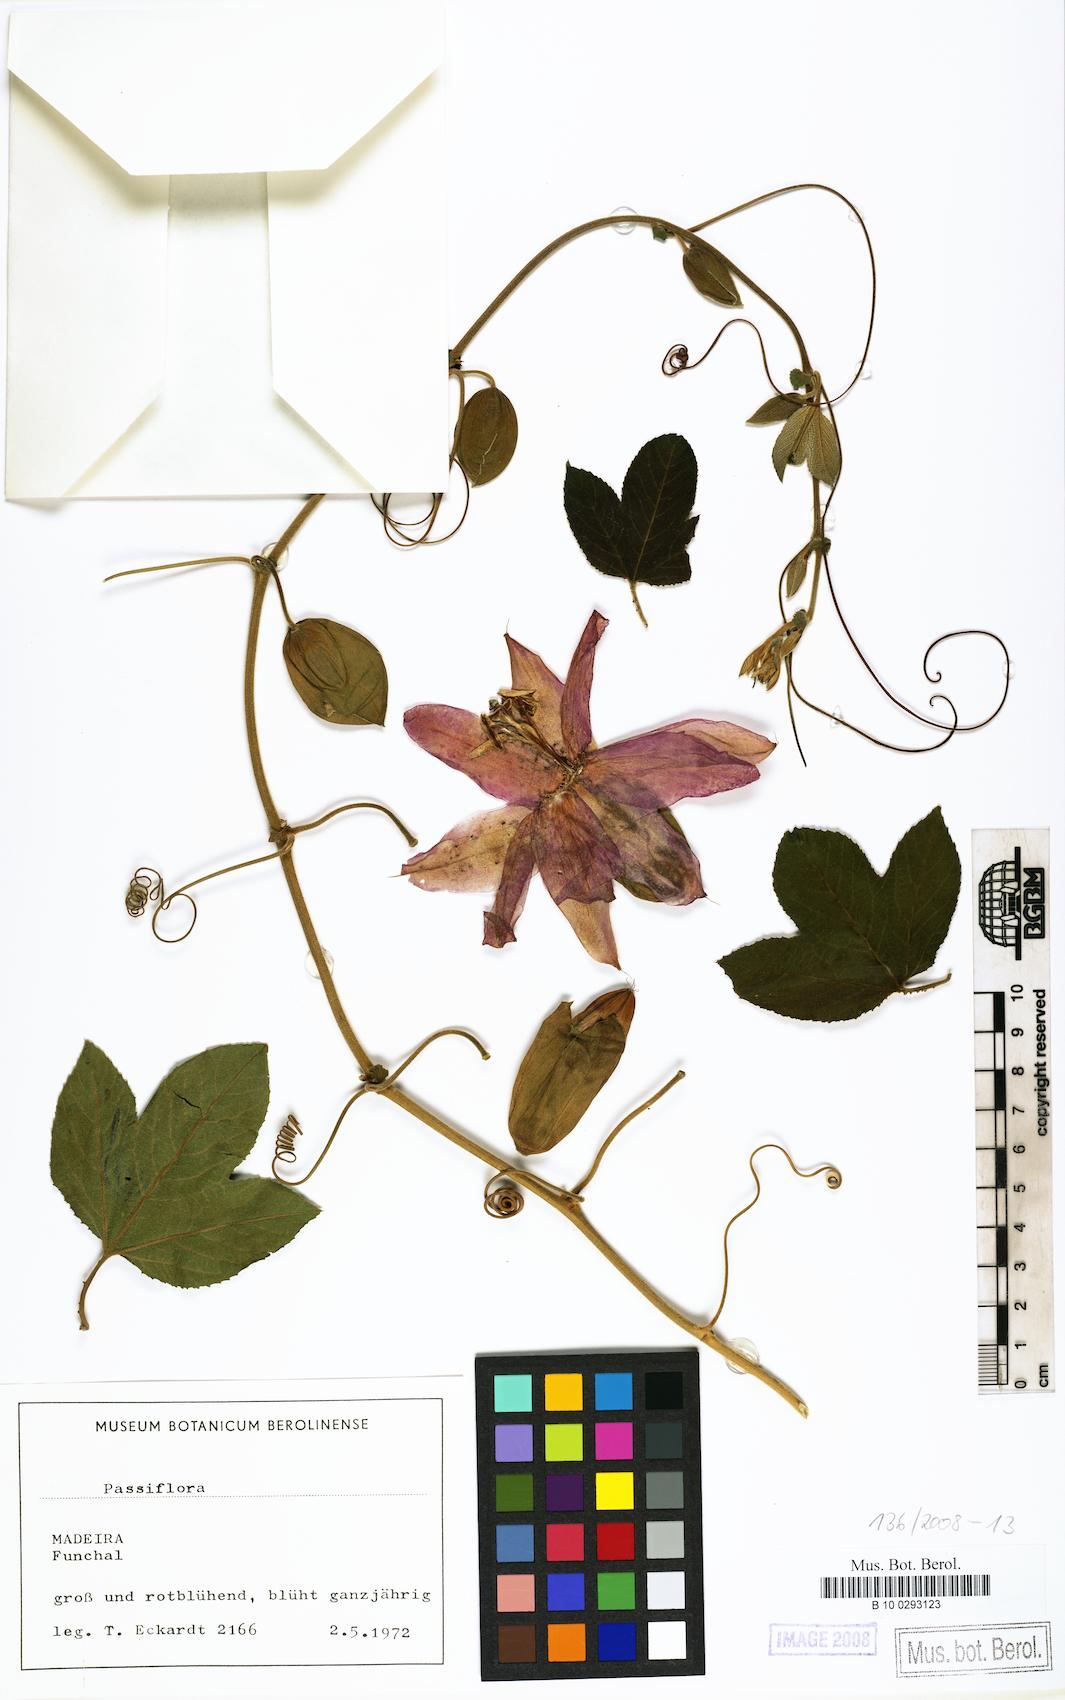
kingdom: Plantae
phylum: Tracheophyta
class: Magnoliopsida
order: Malpighiales
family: Passifloraceae
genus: Passiflora
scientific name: Passiflora
